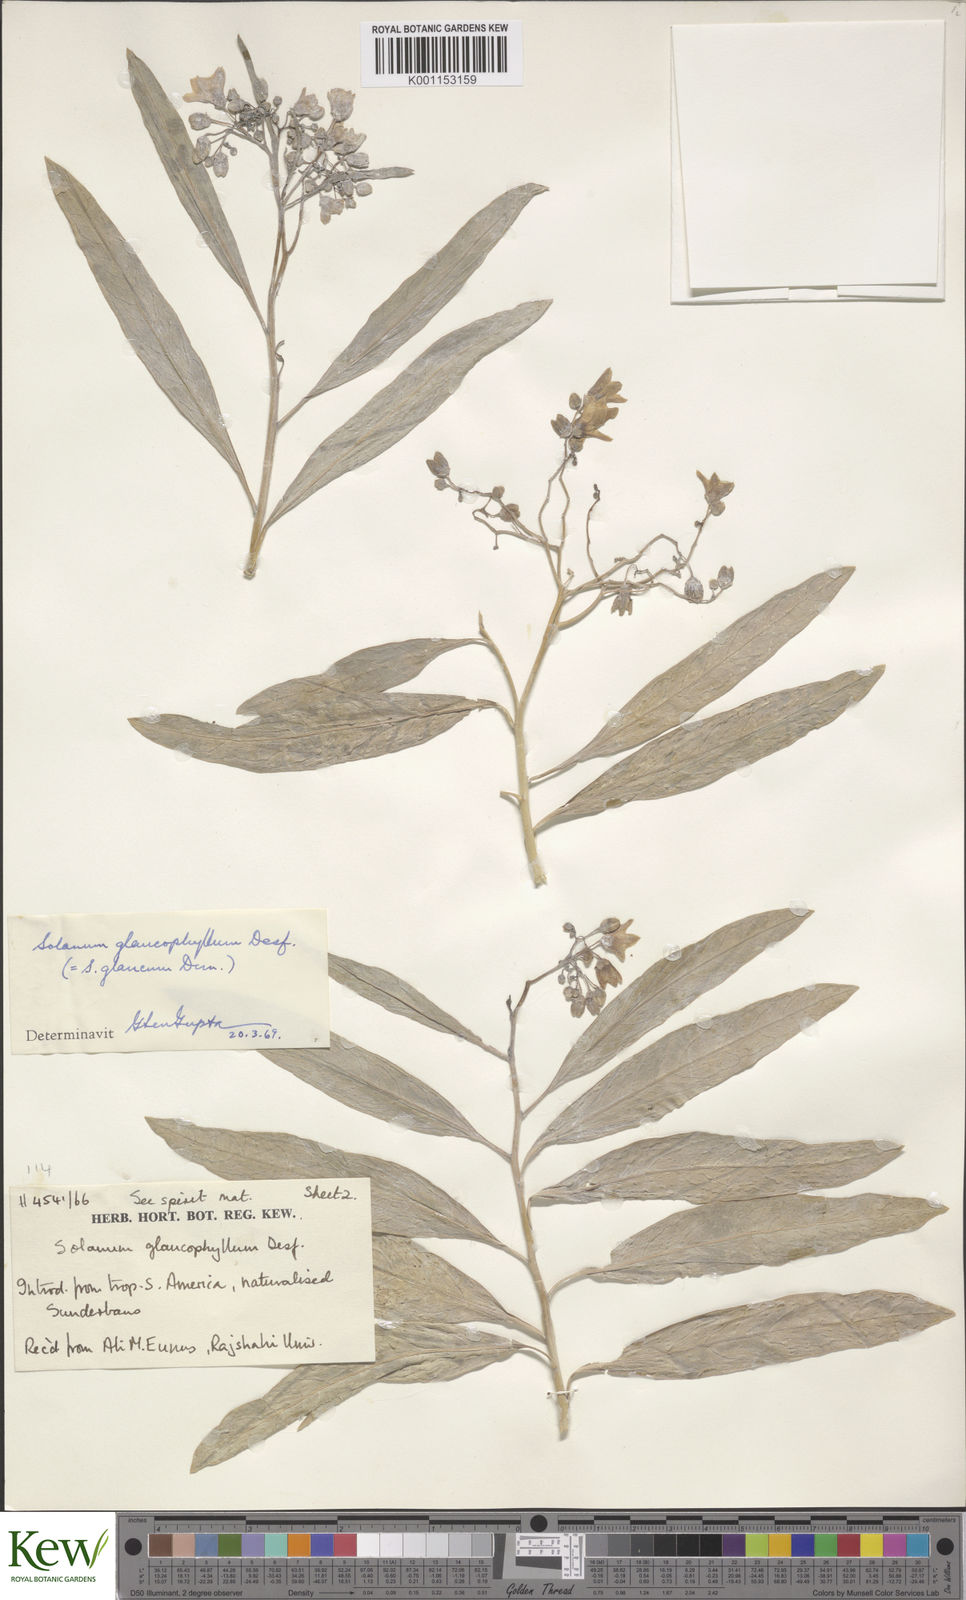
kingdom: Plantae
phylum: Tracheophyta
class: Magnoliopsida
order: Solanales
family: Solanaceae
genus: Solanum
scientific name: Solanum glaucophyllum
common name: Waxyleaf nightshade
